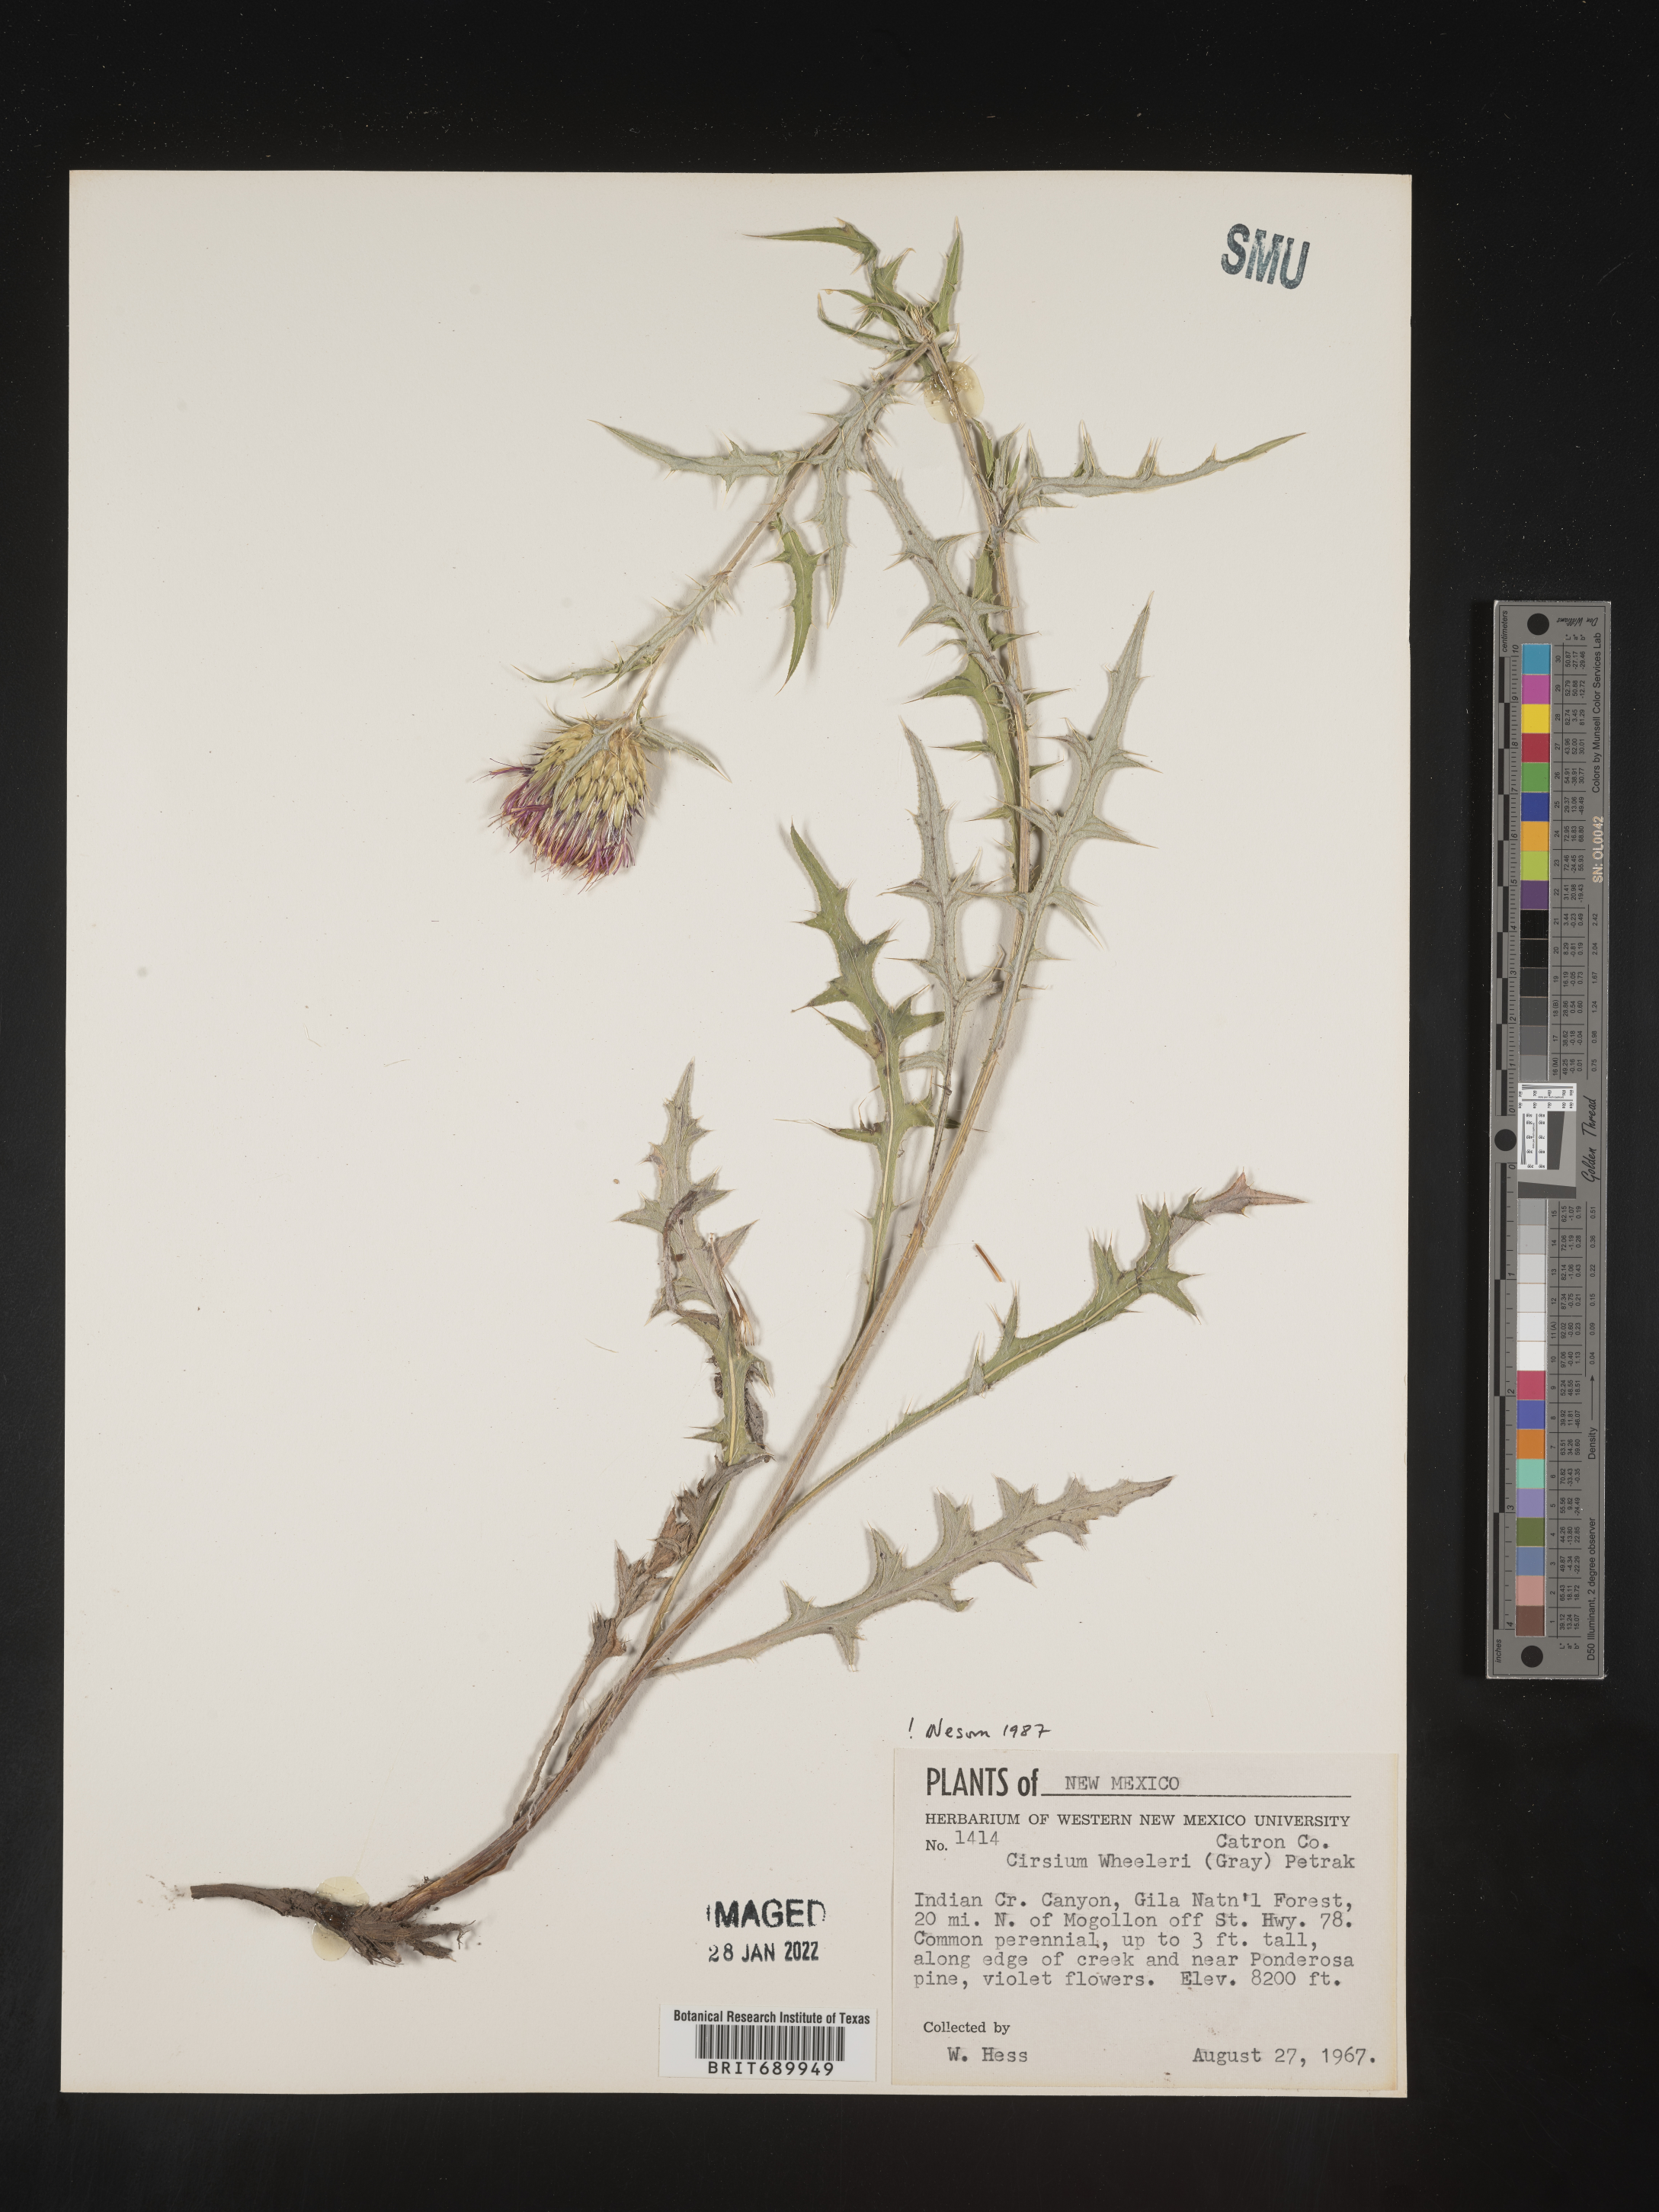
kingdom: Plantae
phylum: Tracheophyta
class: Magnoliopsida
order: Asterales
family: Asteraceae
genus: Cirsium
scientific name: Cirsium wheeleri
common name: Wheeler's thistle
